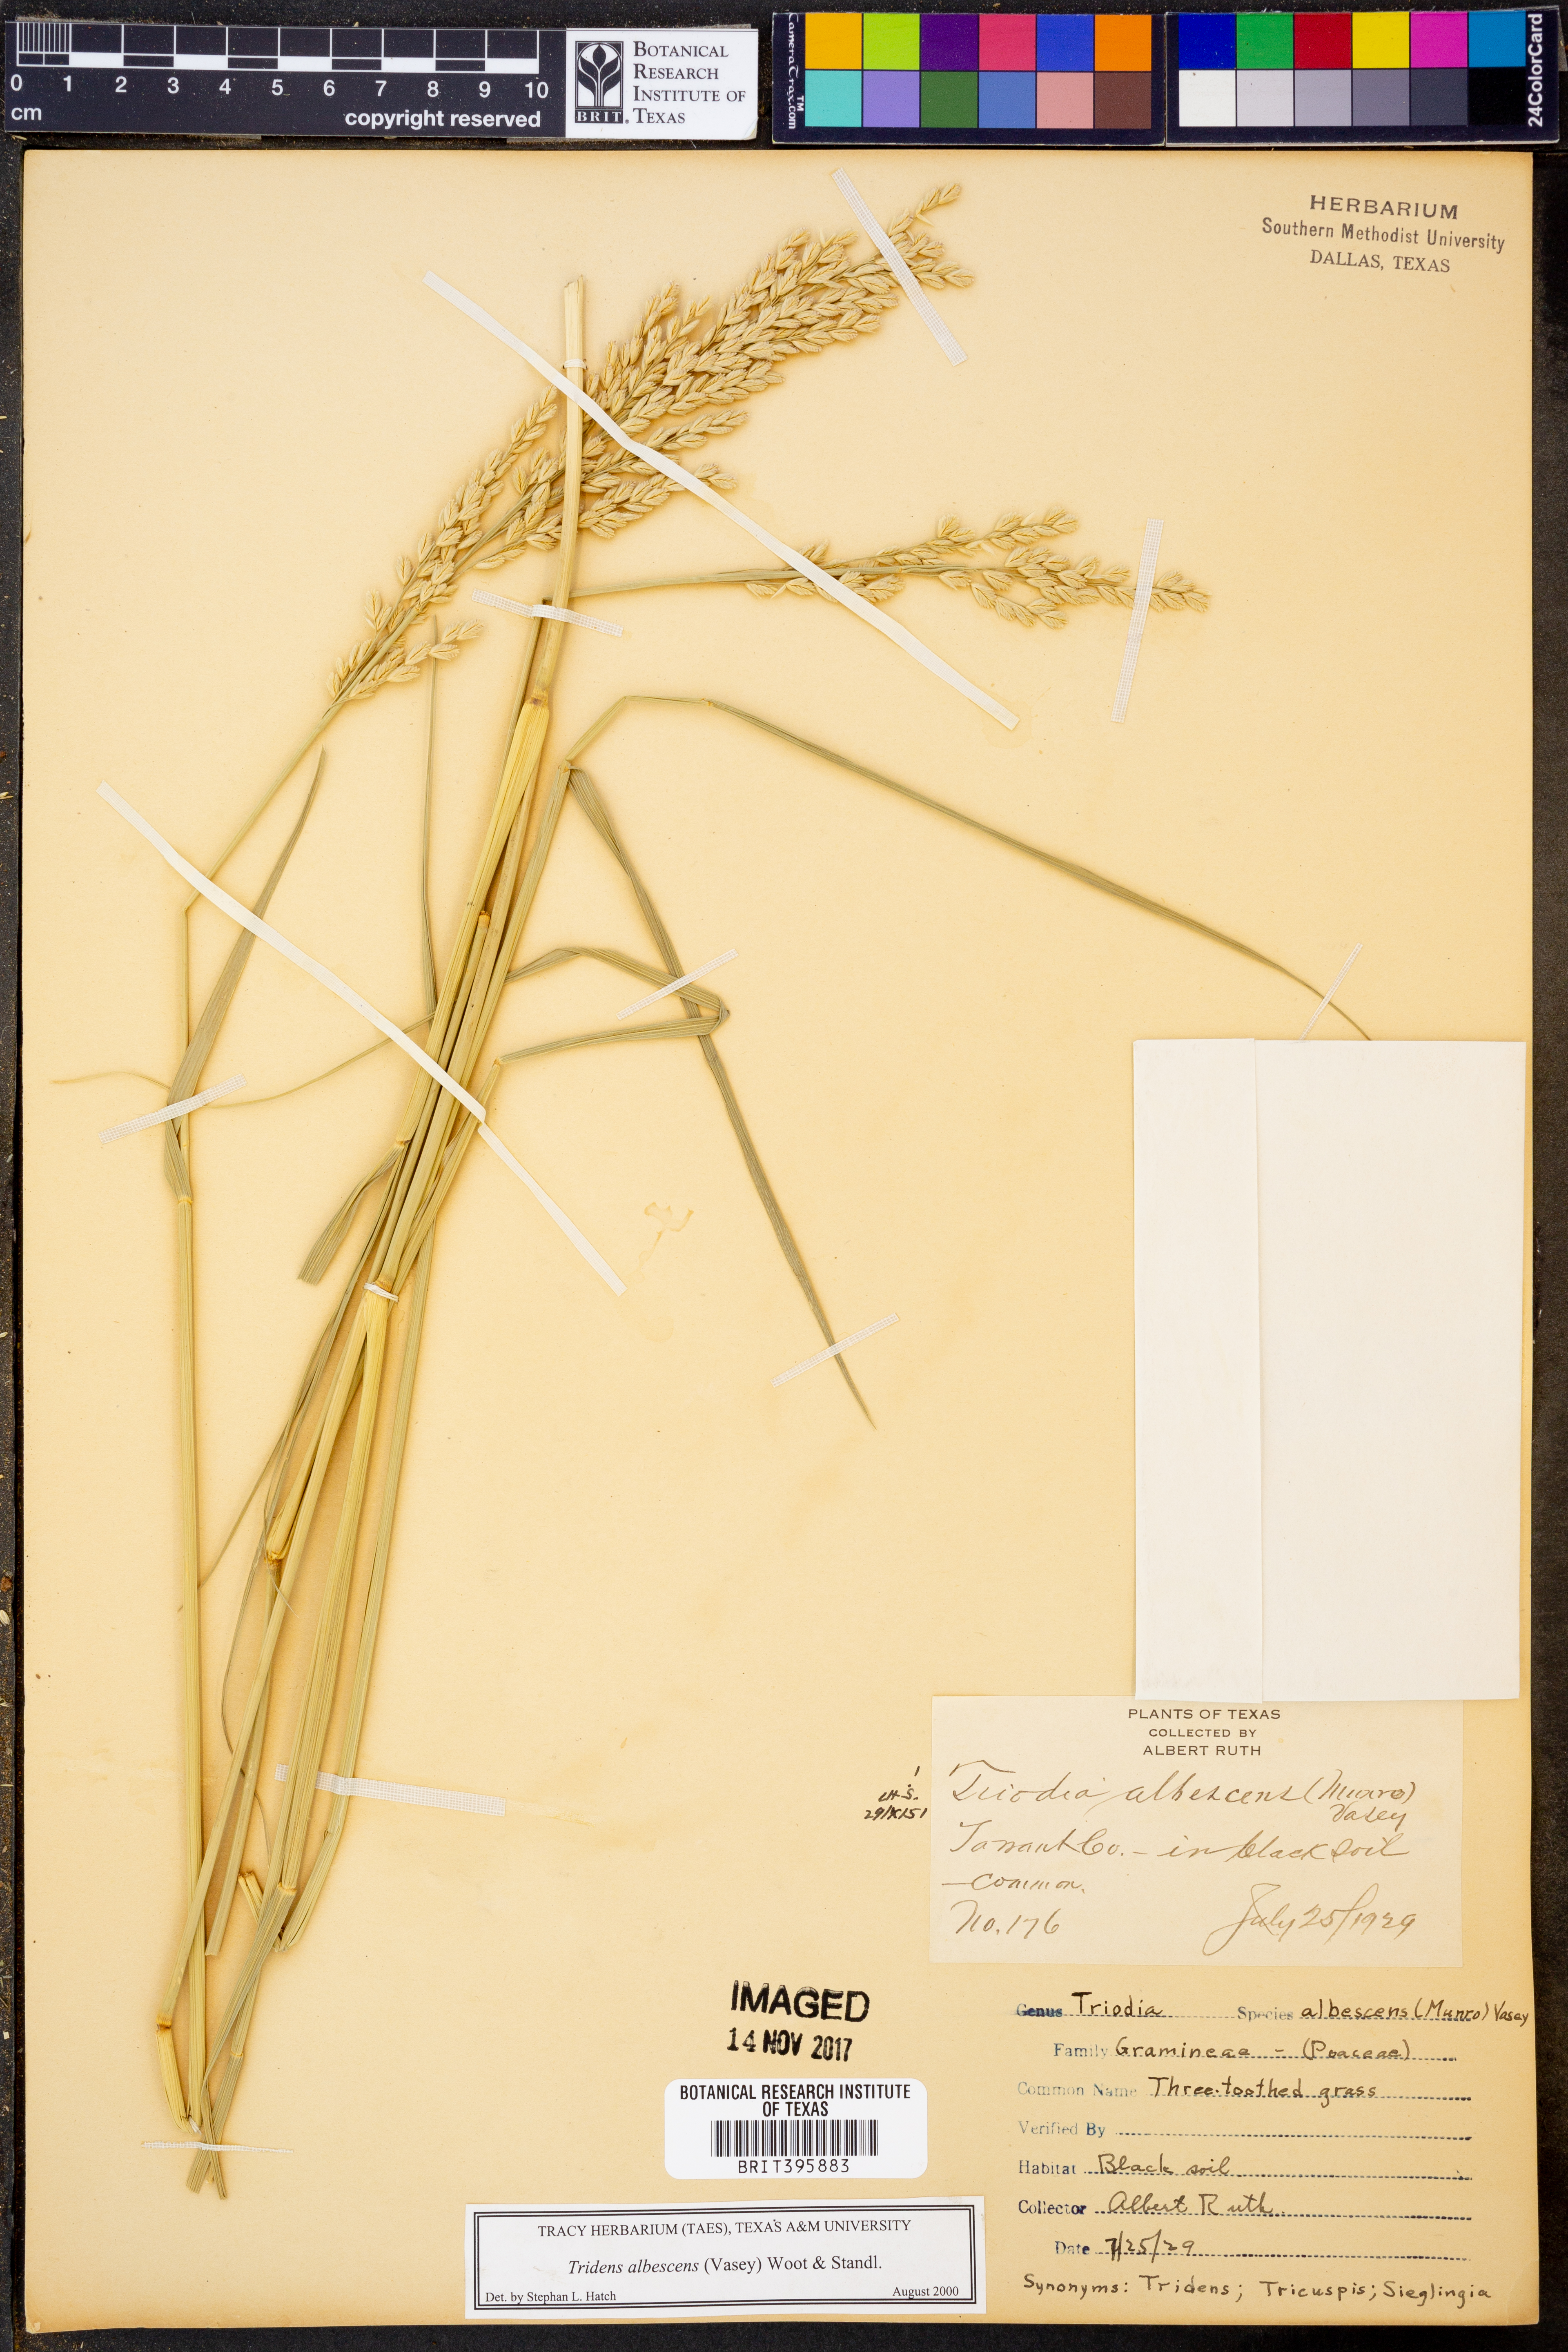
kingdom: Plantae
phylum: Tracheophyta
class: Liliopsida
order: Poales
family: Poaceae
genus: Tridens
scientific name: Tridens albescens
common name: White tridens
